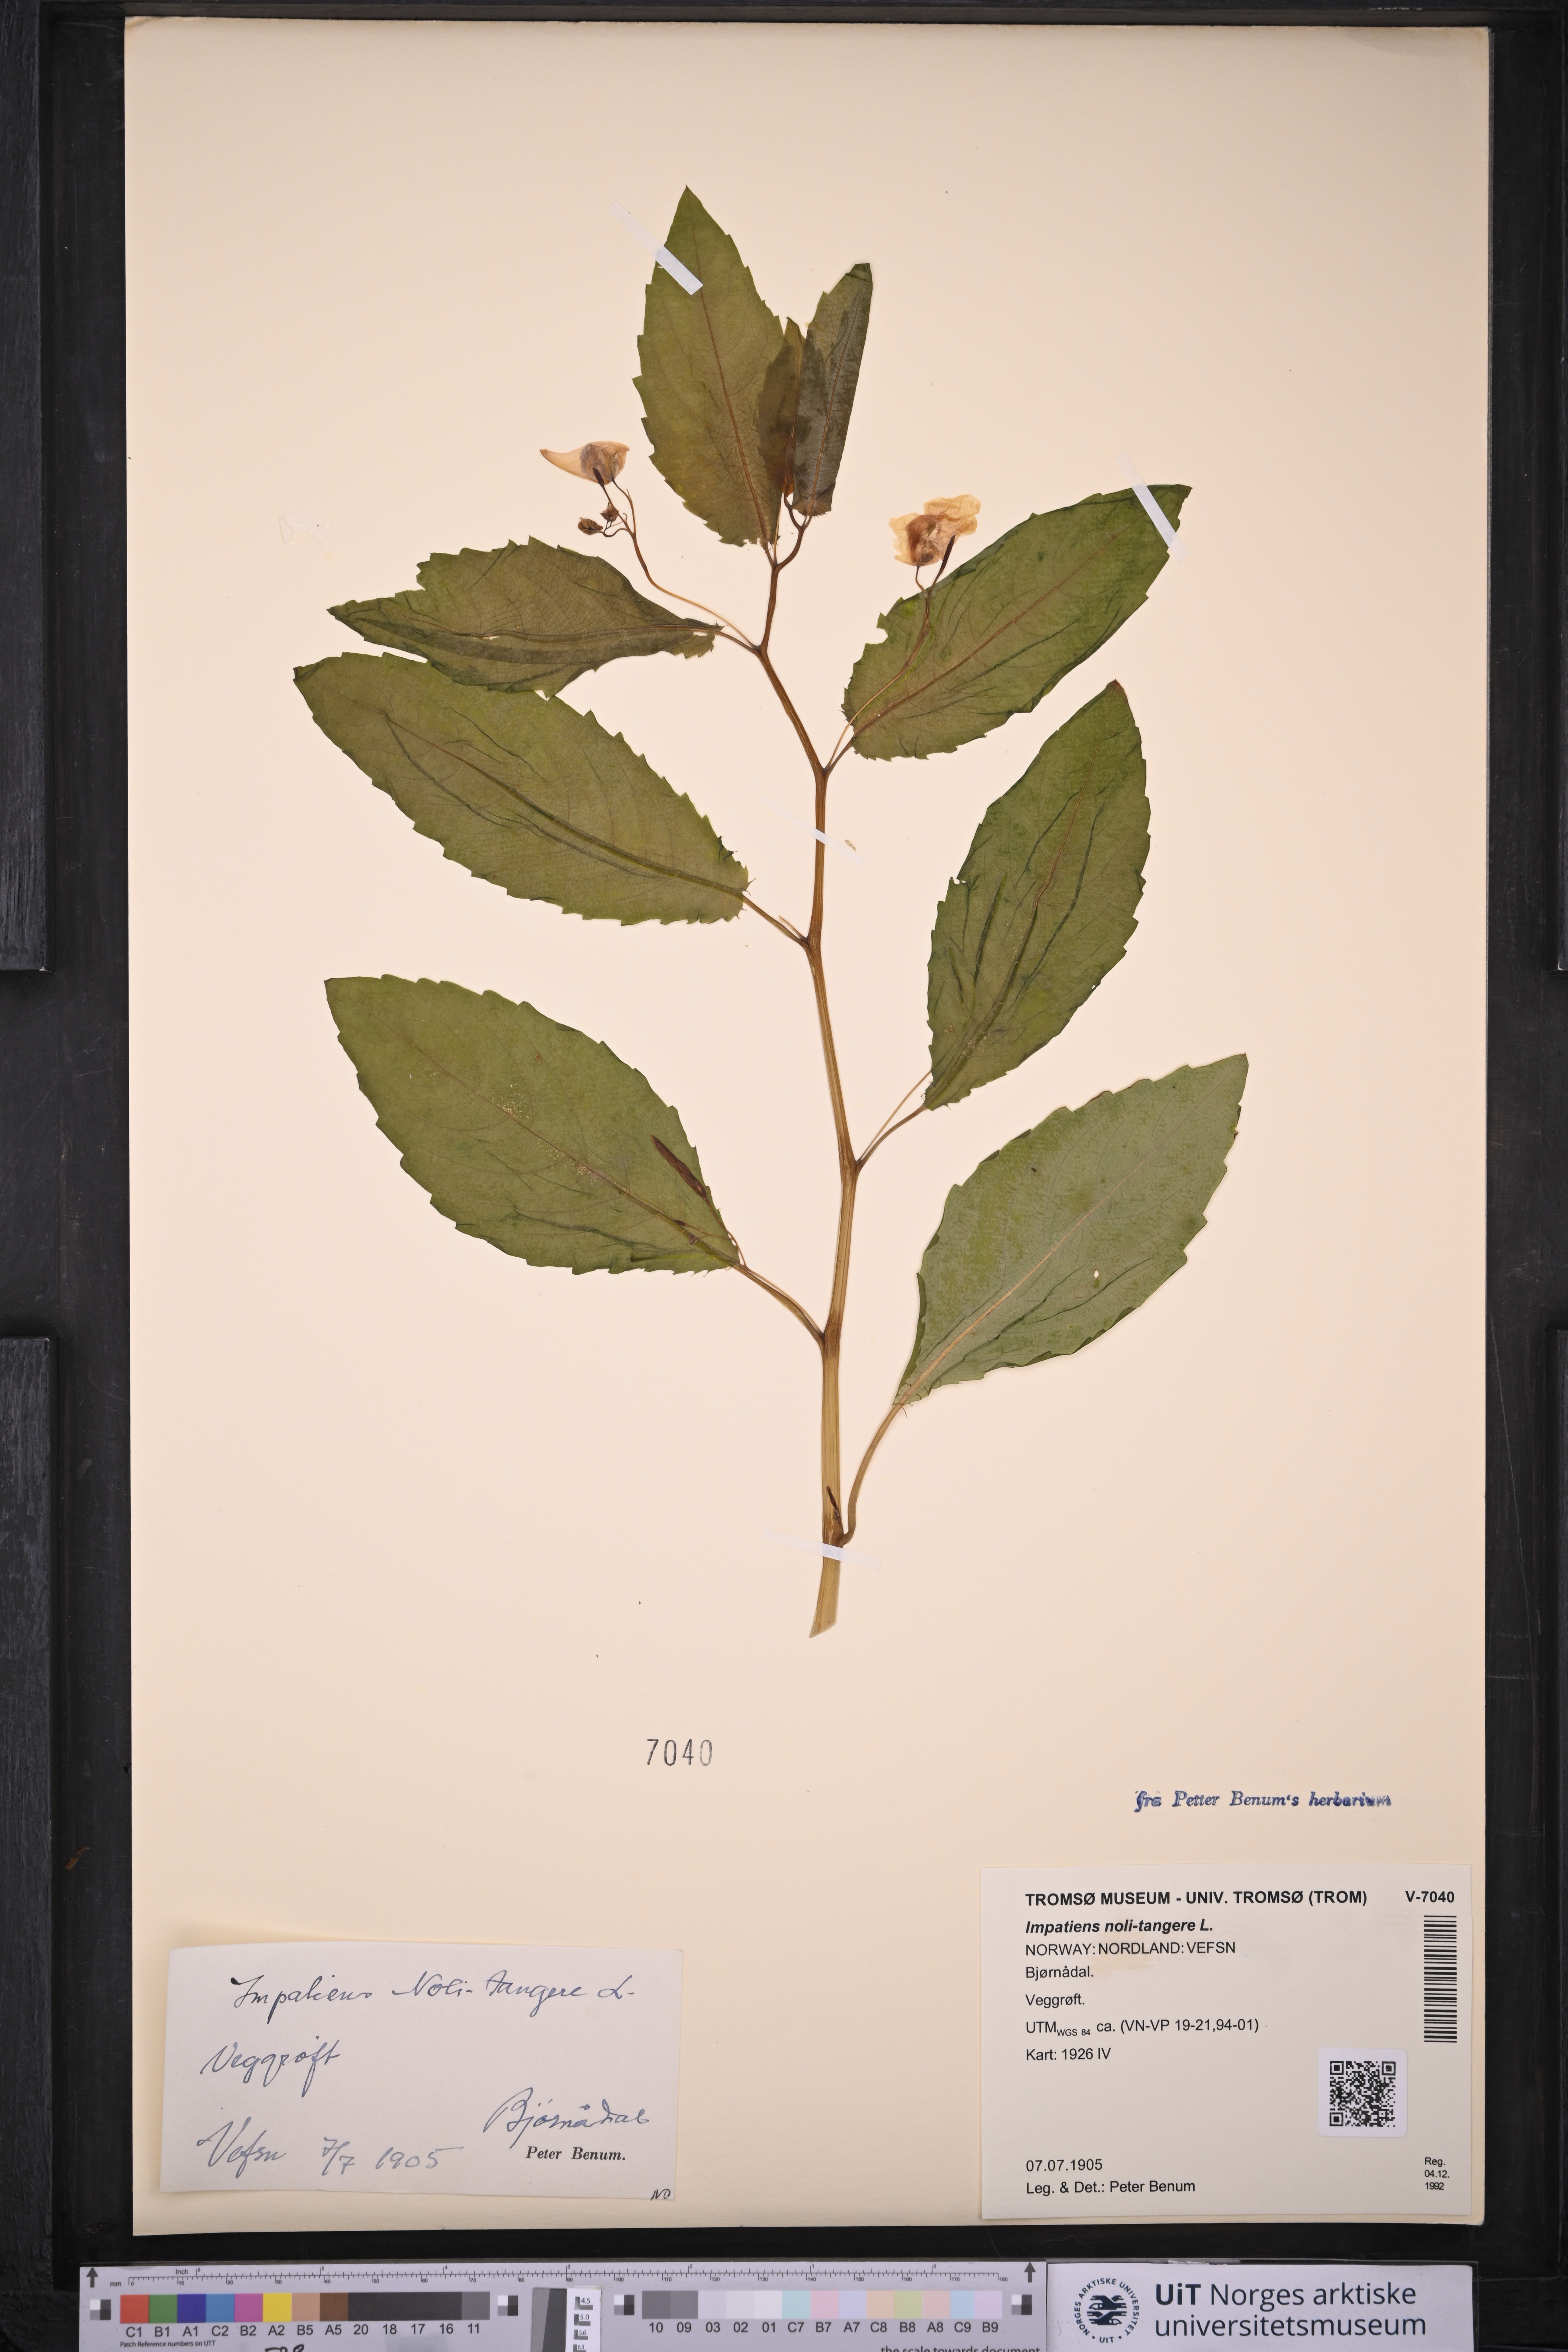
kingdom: Plantae
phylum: Tracheophyta
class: Magnoliopsida
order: Ericales
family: Balsaminaceae
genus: Impatiens
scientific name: Impatiens noli-tangere
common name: Touch-me-not balsam
